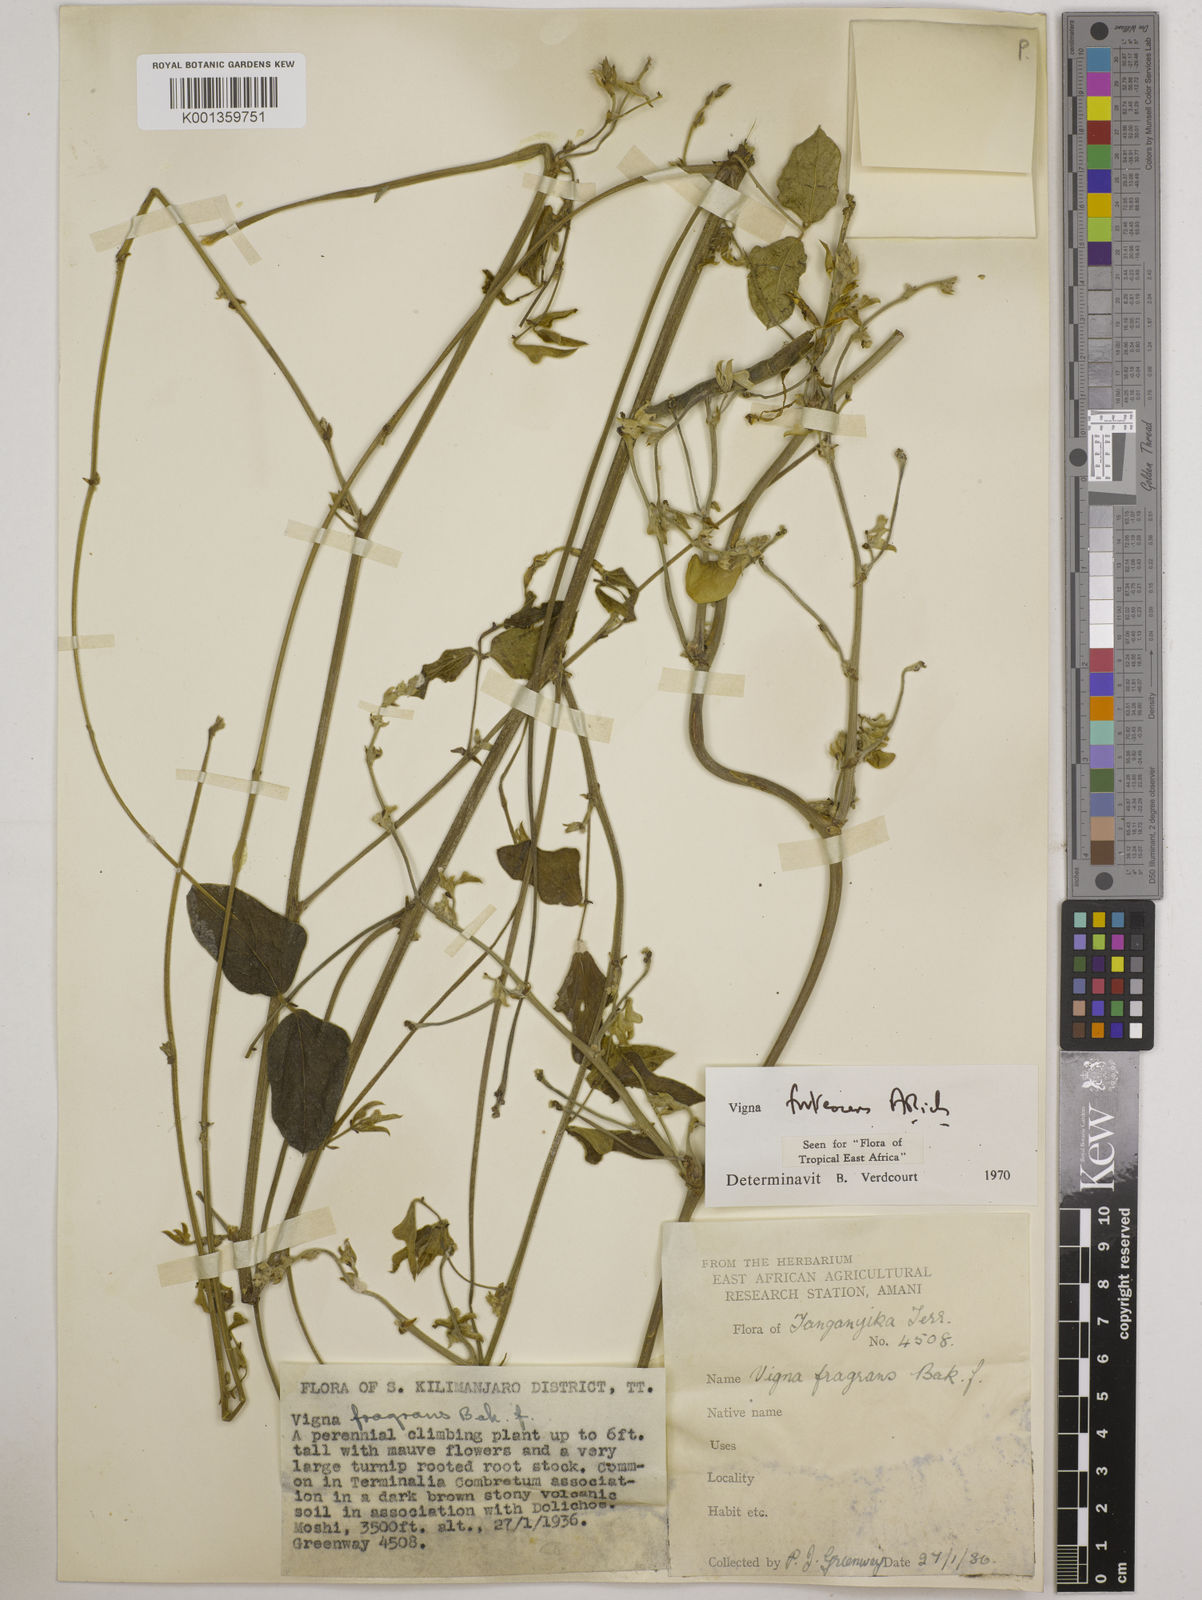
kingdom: Plantae
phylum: Tracheophyta
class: Magnoliopsida
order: Fabales
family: Fabaceae
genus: Vigna
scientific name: Vigna frutescens
